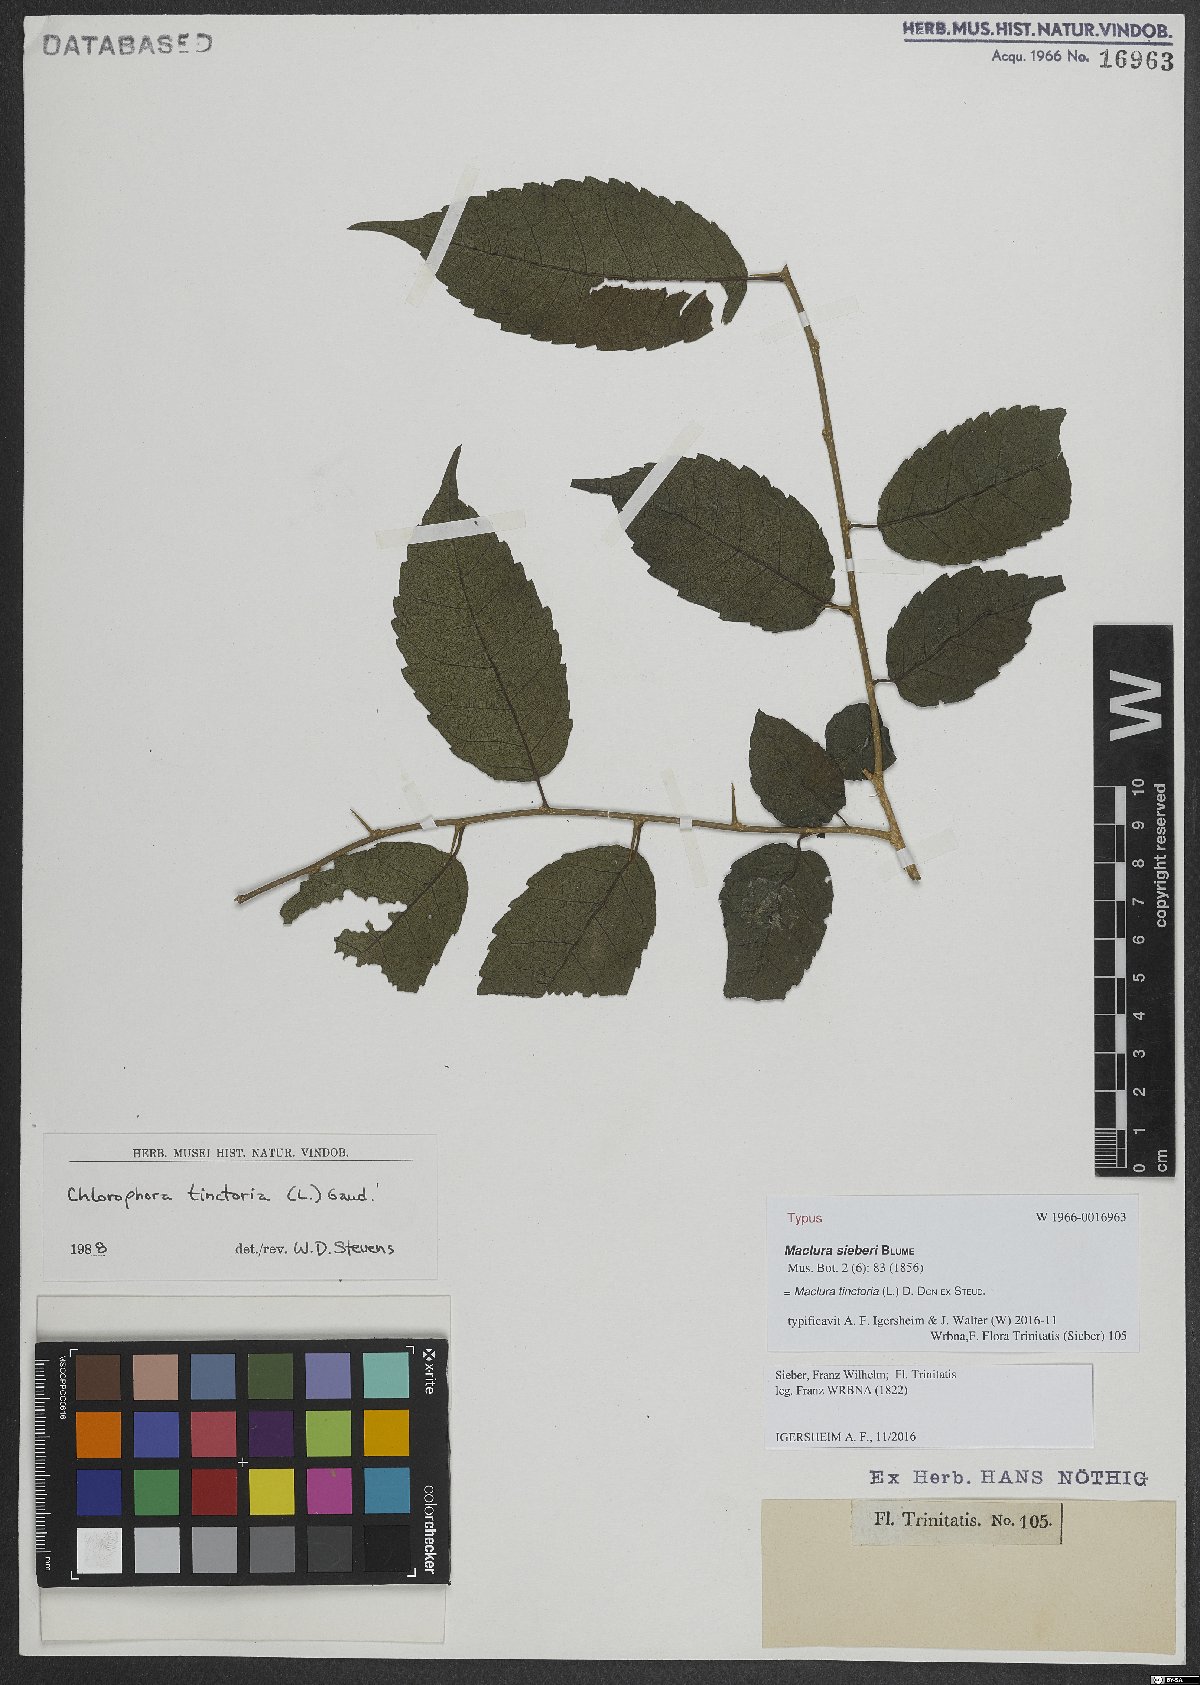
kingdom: Plantae
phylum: Tracheophyta
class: Magnoliopsida
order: Rosales
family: Moraceae
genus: Maclura
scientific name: Maclura tinctoria
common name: Old fustic
